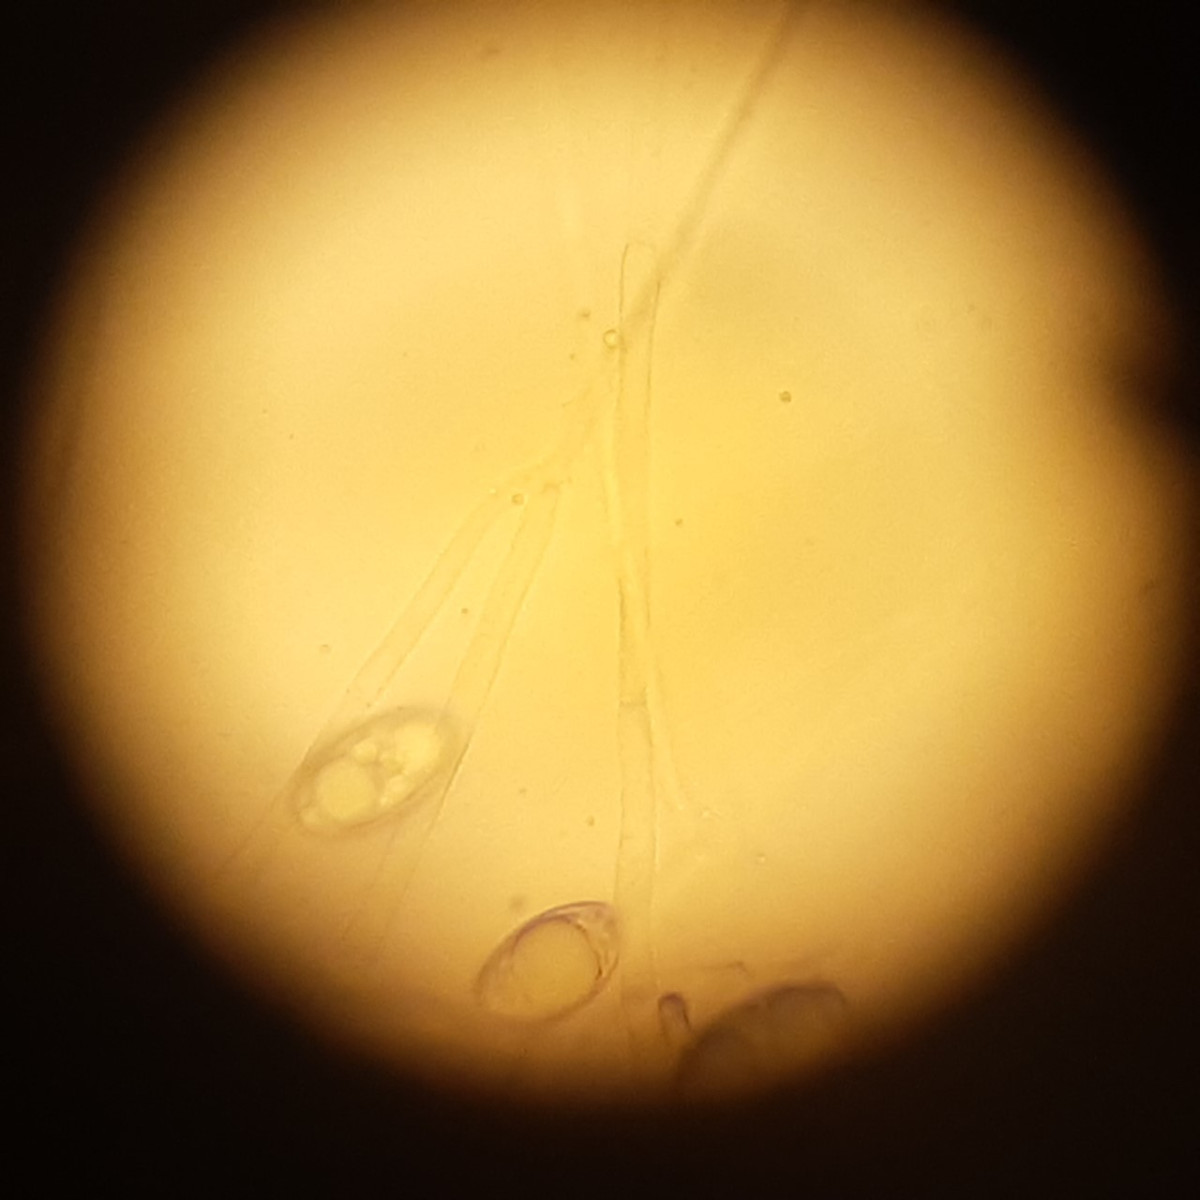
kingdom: Fungi
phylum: Ascomycota
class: Pezizomycetes
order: Pezizales
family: Tarzettaceae
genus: Tarzetta
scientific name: Tarzetta spurcata
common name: stor pokalbæger
